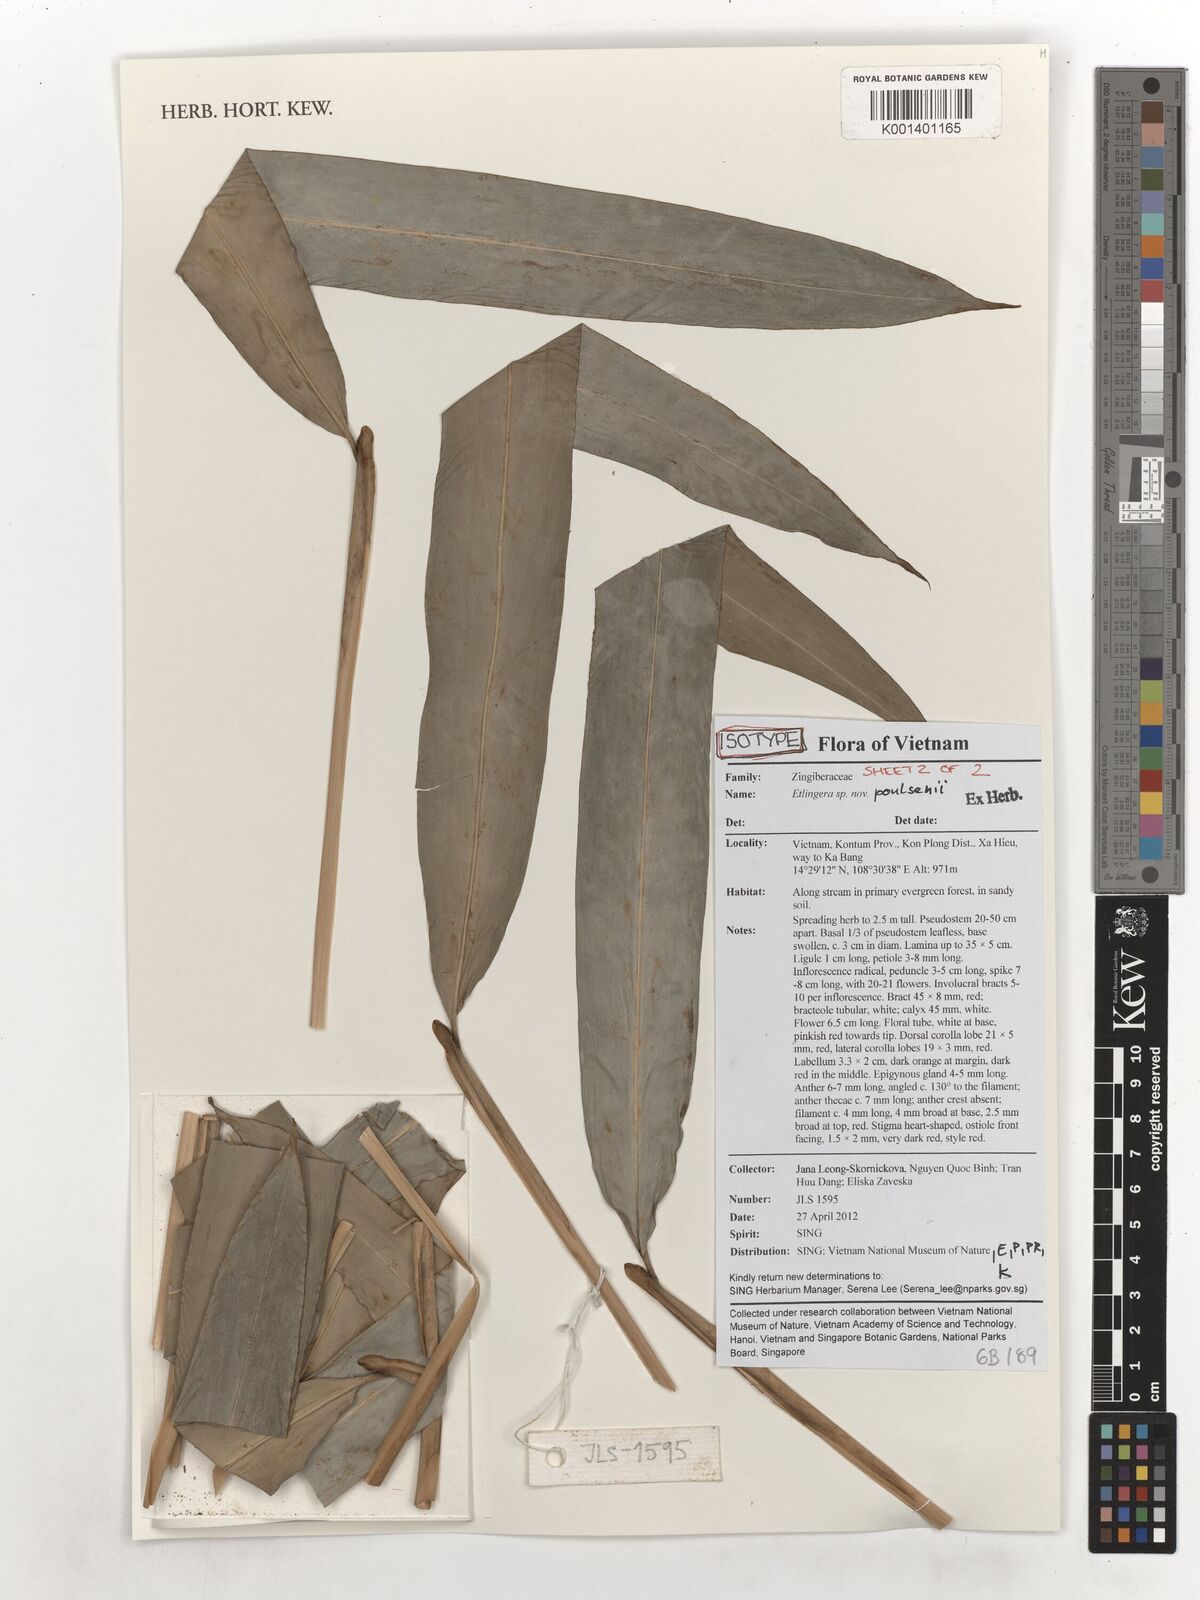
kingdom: Plantae
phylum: Tracheophyta
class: Liliopsida
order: Zingiberales
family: Zingiberaceae
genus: Etlingera
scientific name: Etlingera poulsenii
